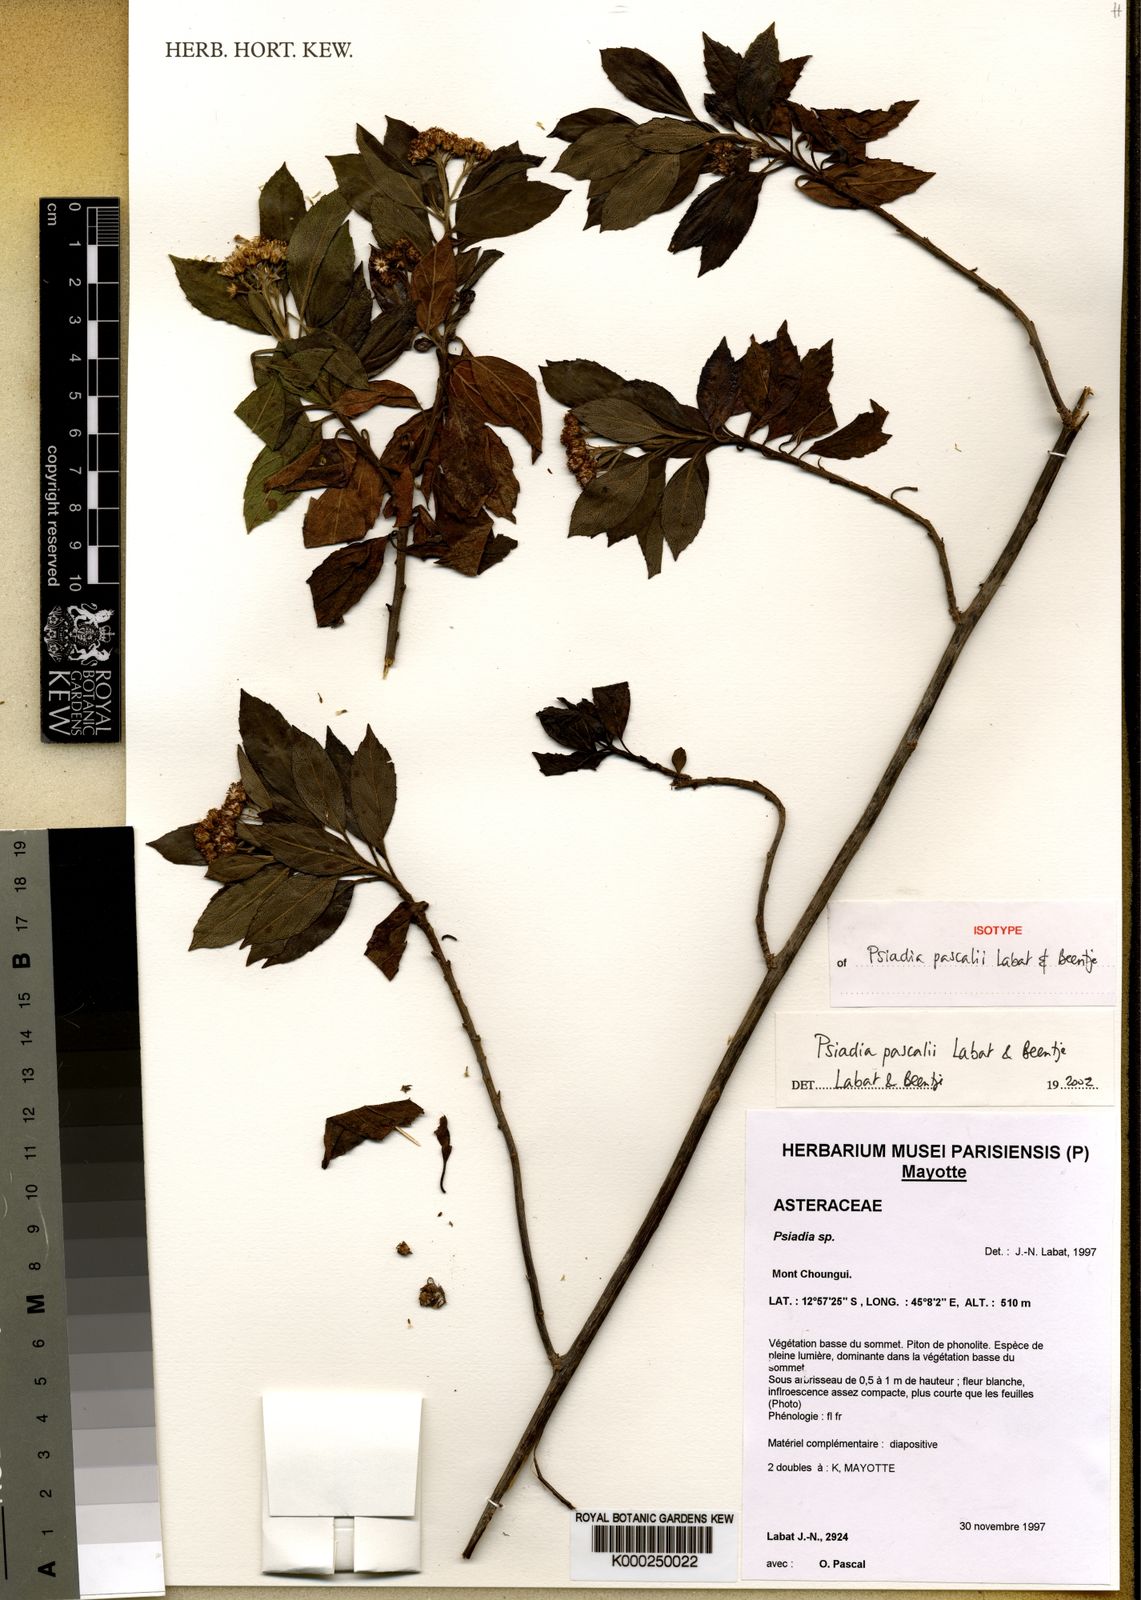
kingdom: Plantae
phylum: Tracheophyta
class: Magnoliopsida
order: Asterales
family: Asteraceae
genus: Psiadia
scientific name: Psiadia pascalii
